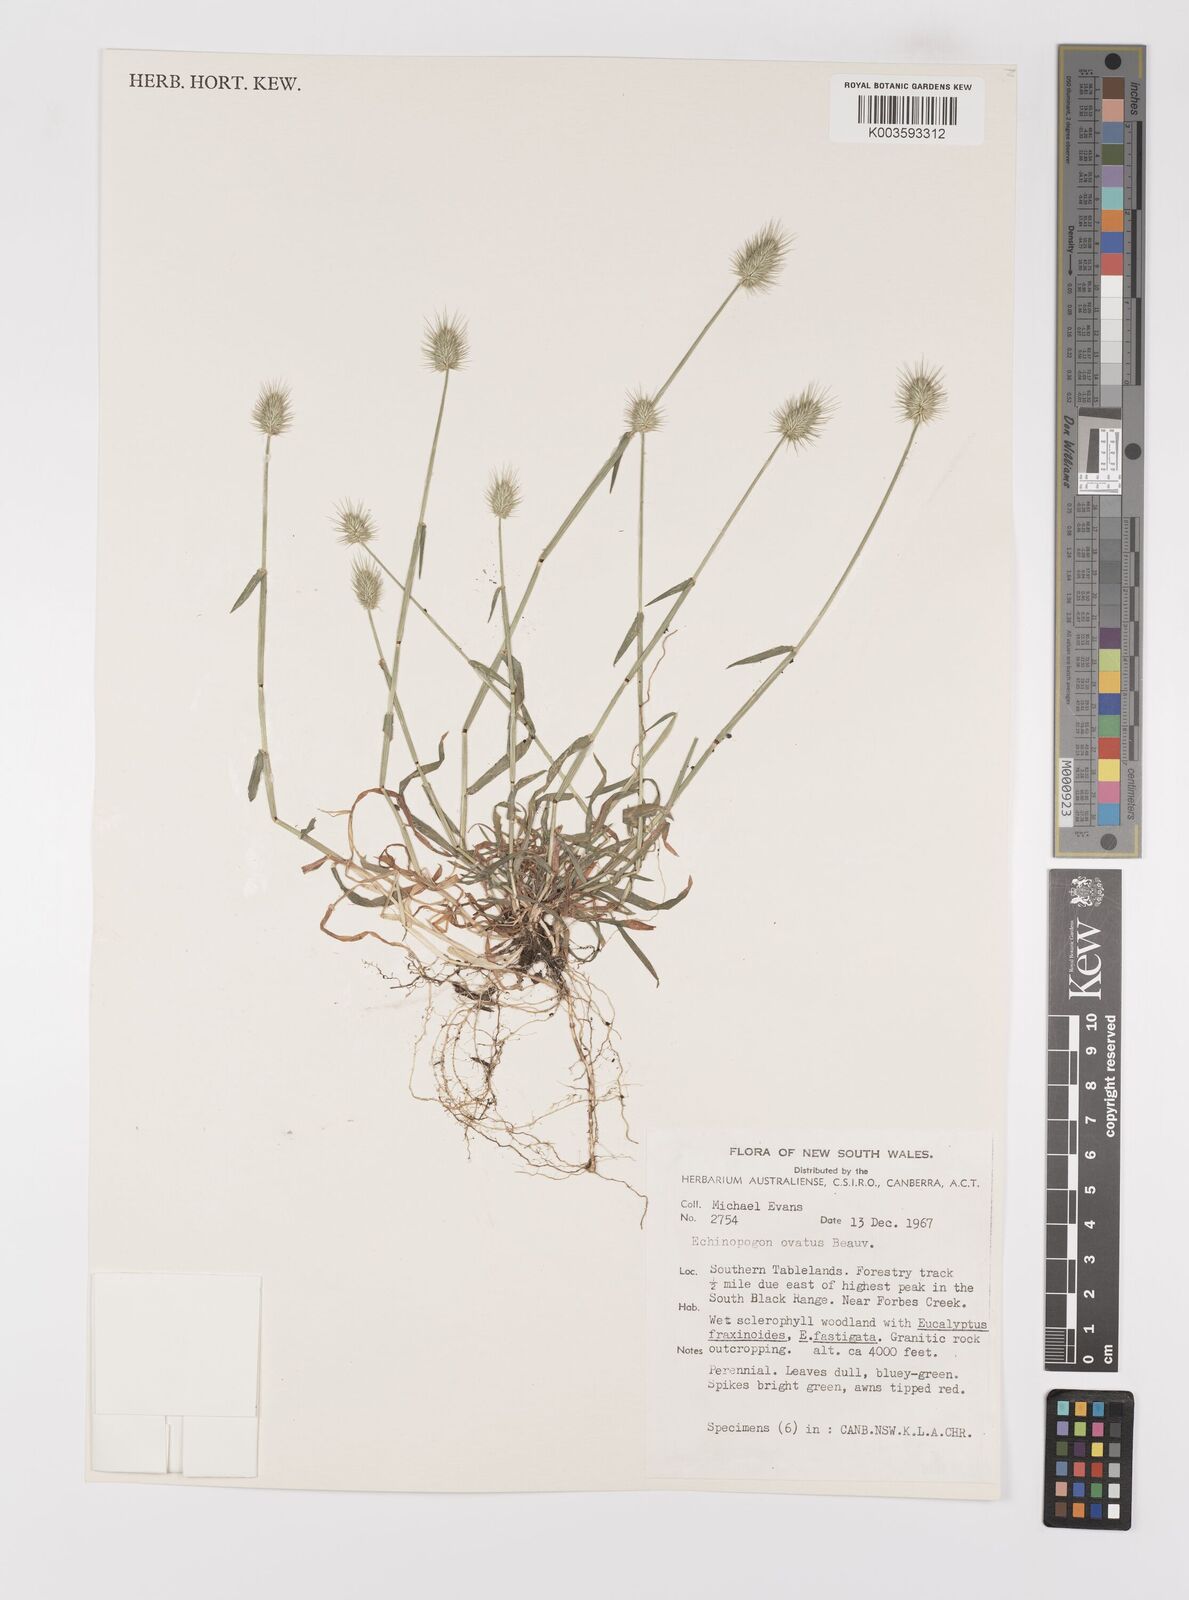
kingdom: Plantae
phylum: Tracheophyta
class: Liliopsida
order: Poales
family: Poaceae
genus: Echinopogon
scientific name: Echinopogon ovatus
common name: Hedgehog-grass
